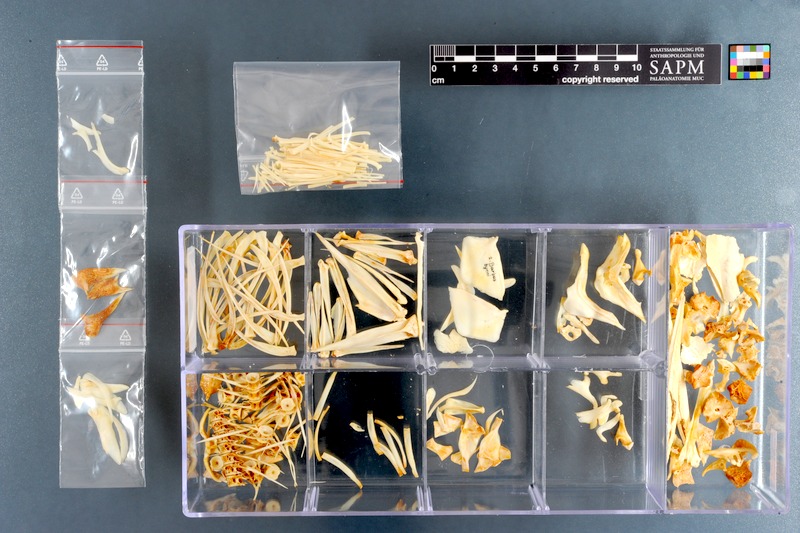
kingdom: Animalia
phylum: Chordata
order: Cypriniformes
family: Cyprinidae
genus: Labeobarbus
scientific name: Labeobarbus bynni
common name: Barbel
